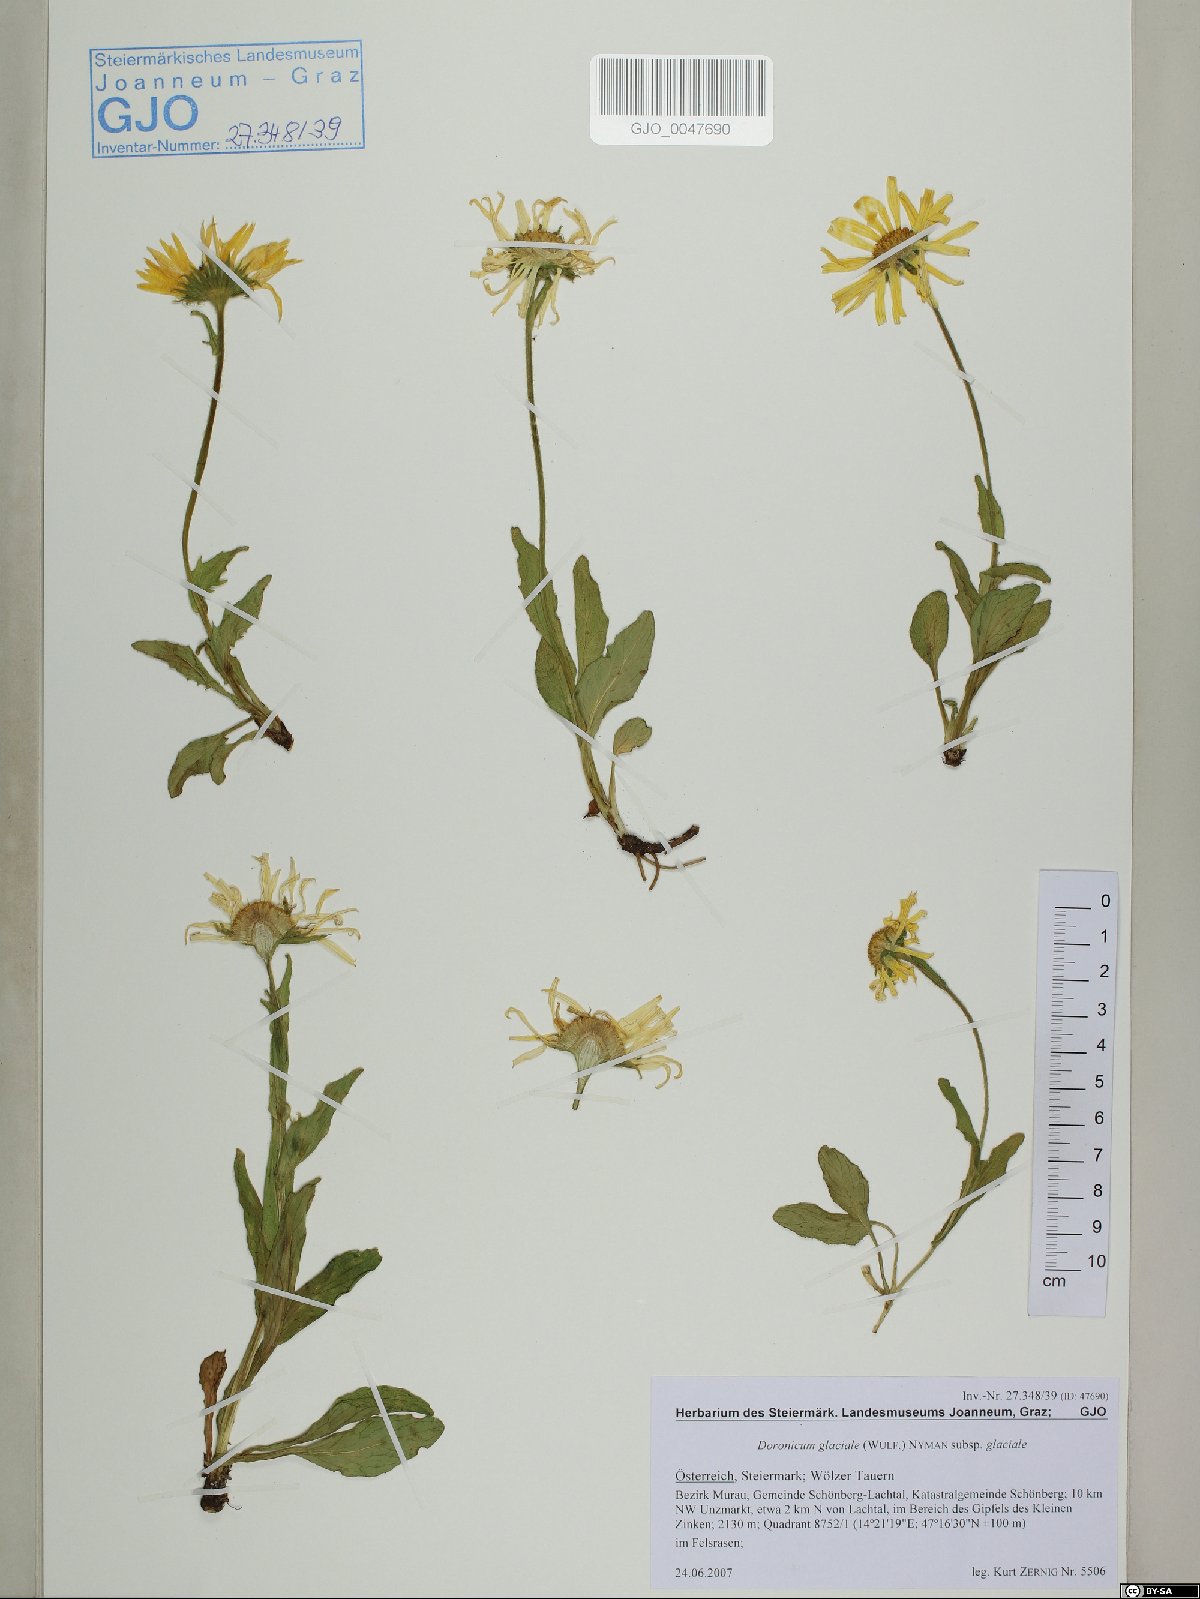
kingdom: Plantae
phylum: Tracheophyta
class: Magnoliopsida
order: Asterales
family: Asteraceae
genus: Doronicum
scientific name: Doronicum glaciale
